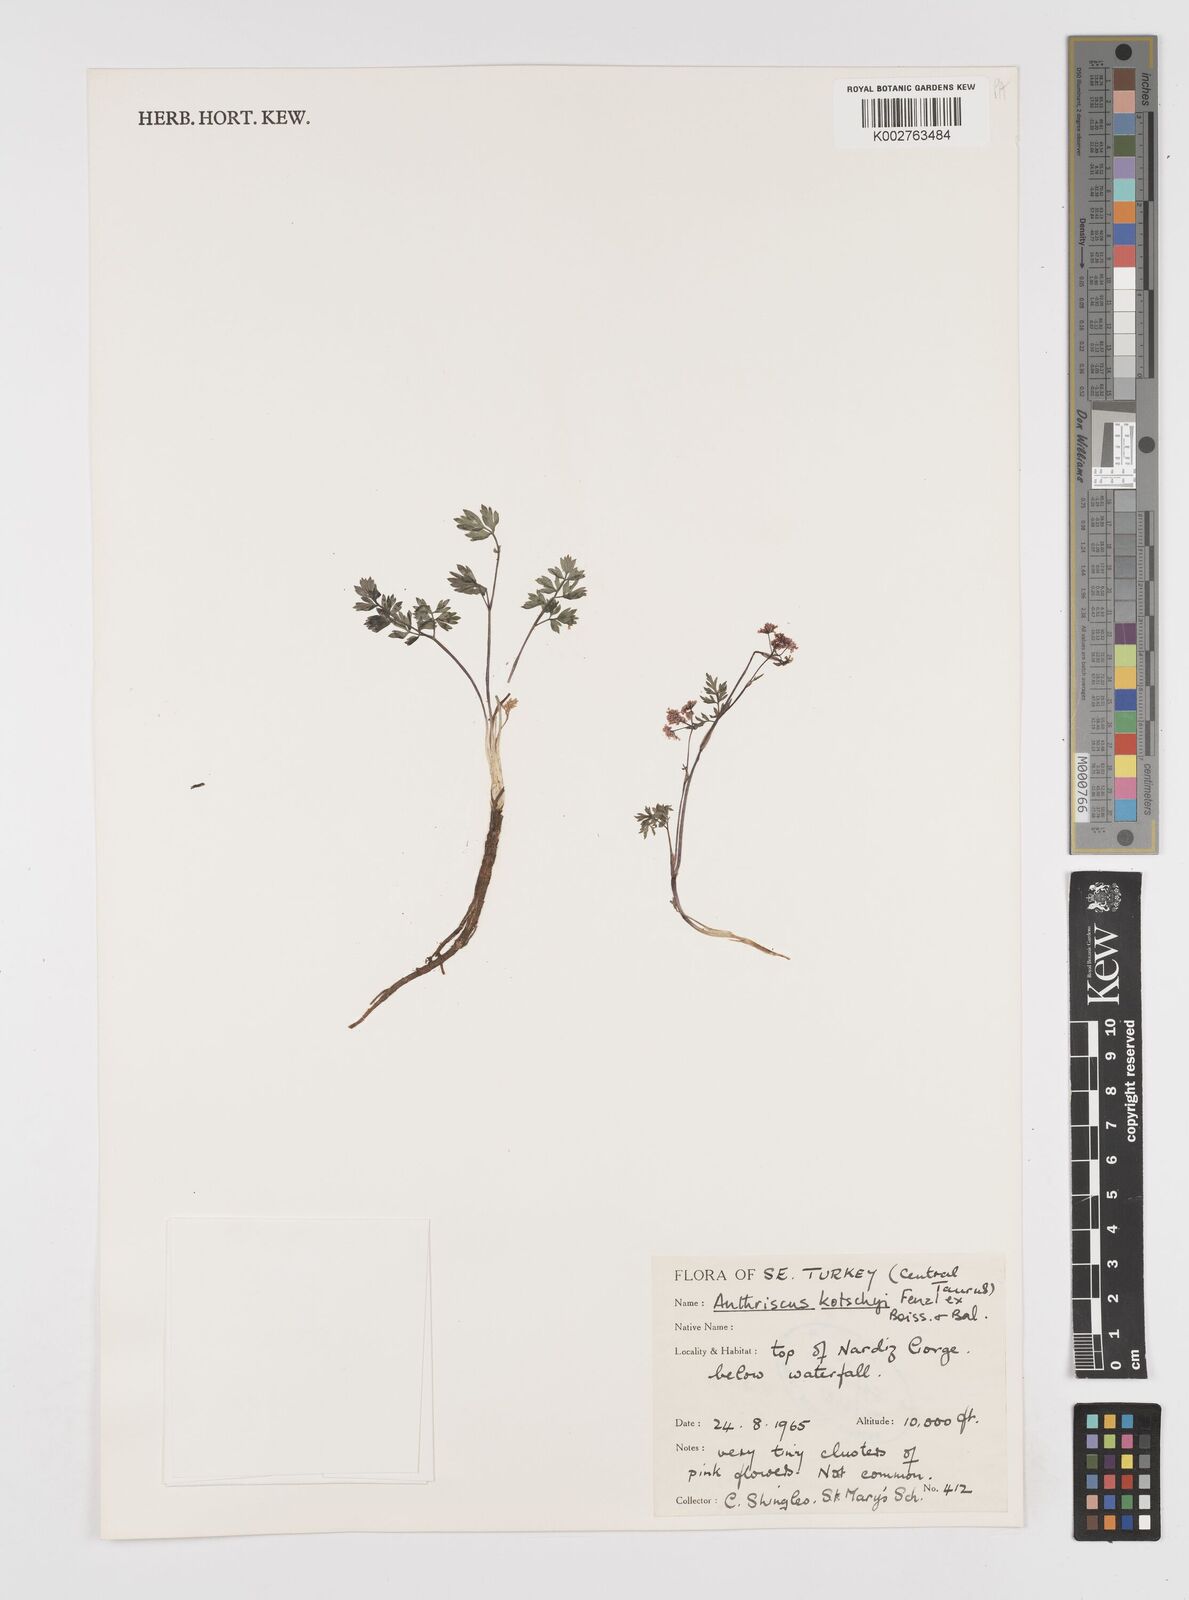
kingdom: Plantae
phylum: Tracheophyta
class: Magnoliopsida
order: Apiales
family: Apiaceae
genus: Anthriscus
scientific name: Anthriscus kotschyi
